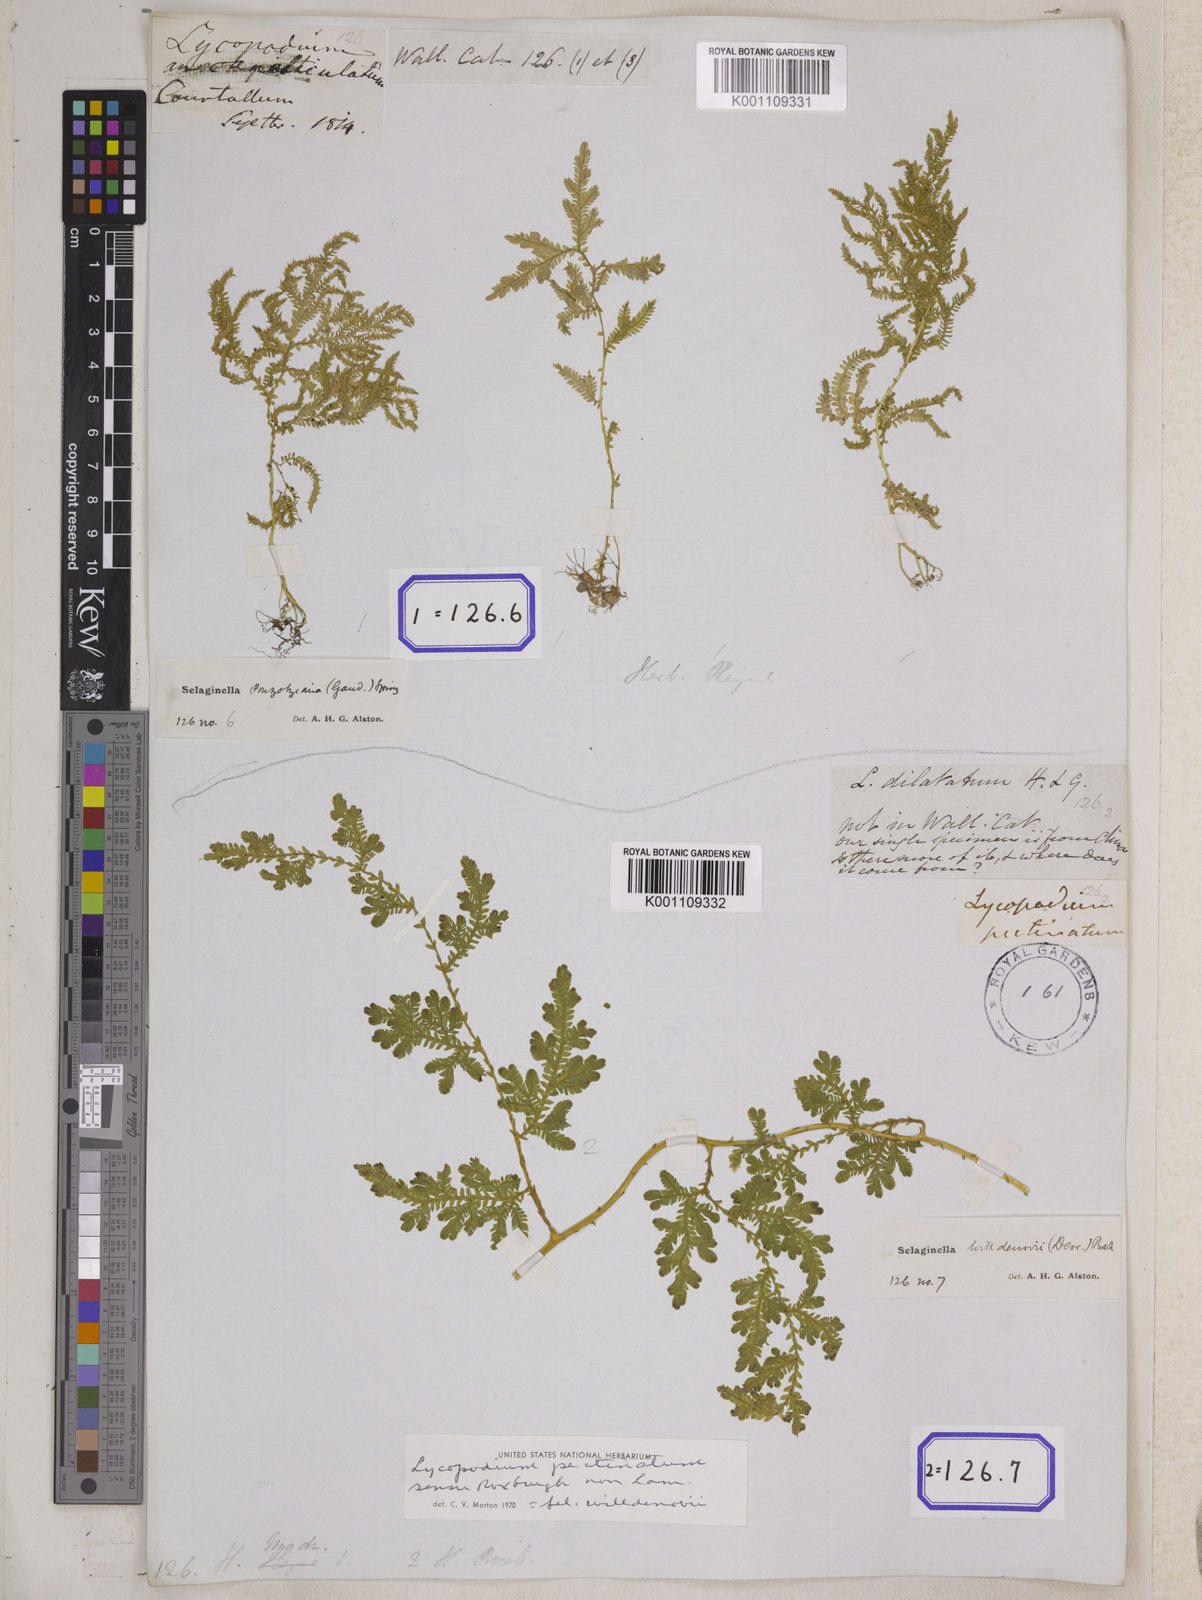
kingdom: Plantae
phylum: Tracheophyta
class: Lycopodiopsida
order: Selaginellales
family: Selaginellaceae
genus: Selaginella
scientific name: Selaginella semicordata
